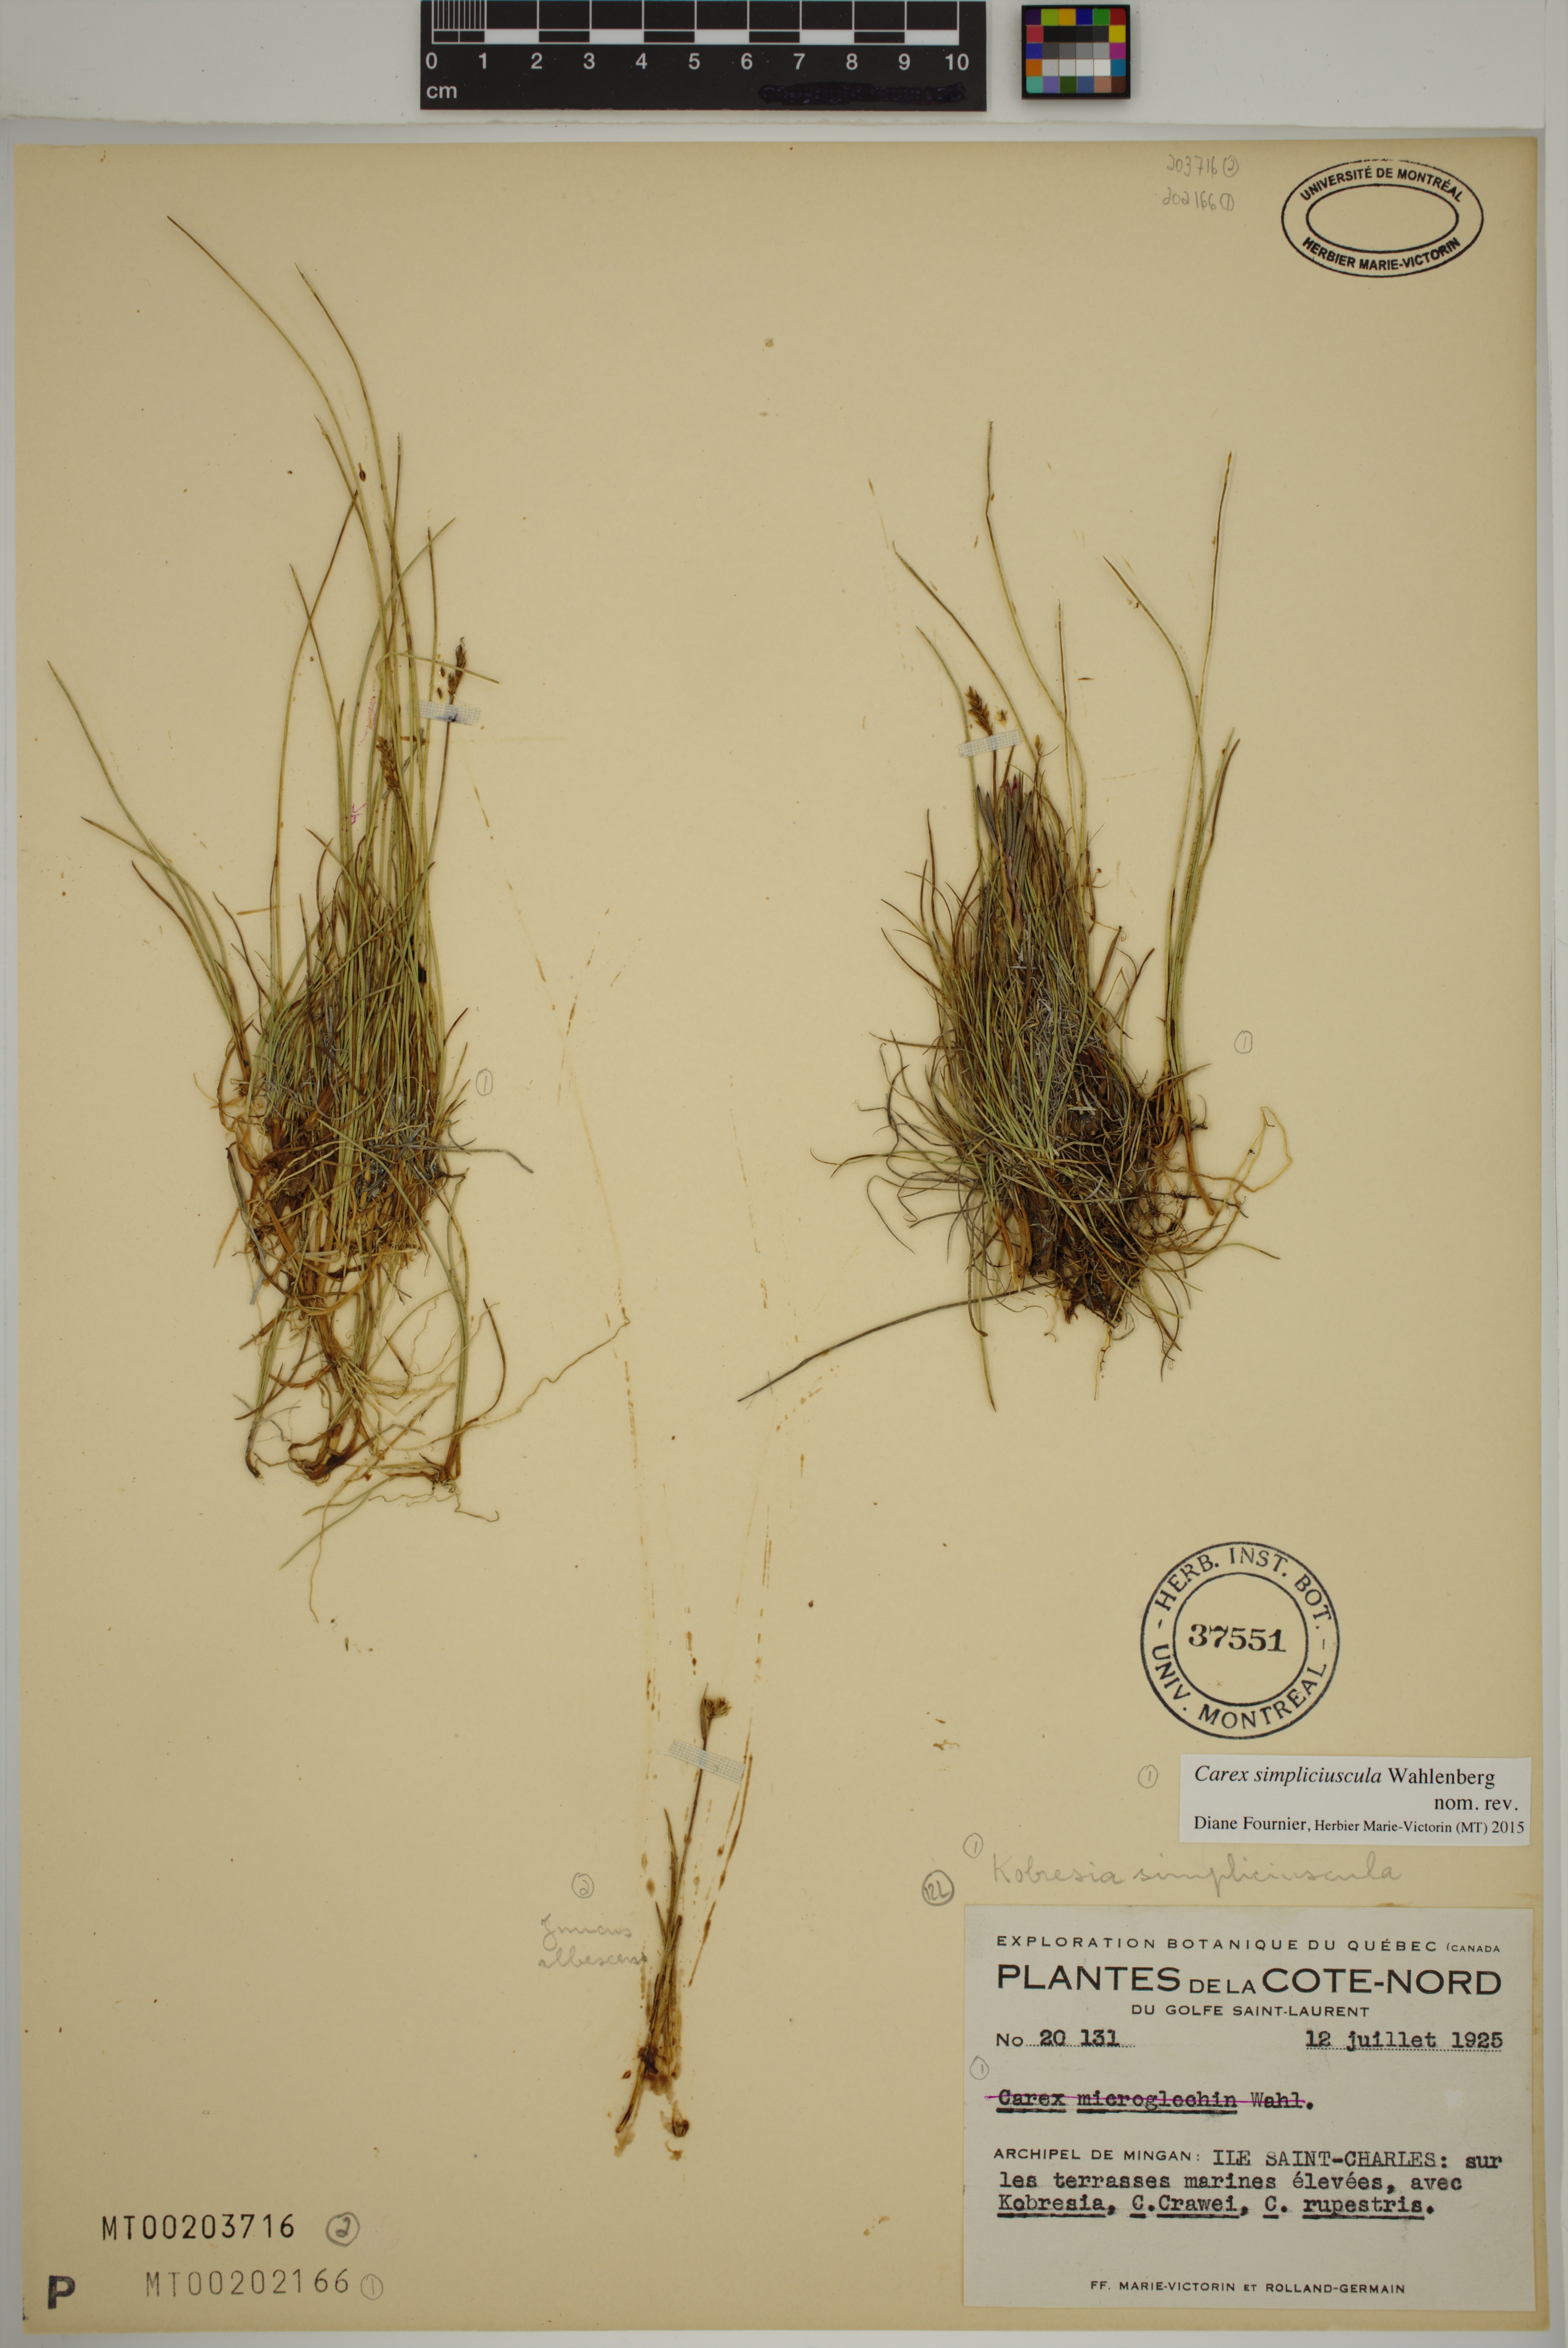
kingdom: Plantae
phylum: Tracheophyta
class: Liliopsida
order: Poales
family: Juncaceae
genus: Juncus
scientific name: Juncus albescens
